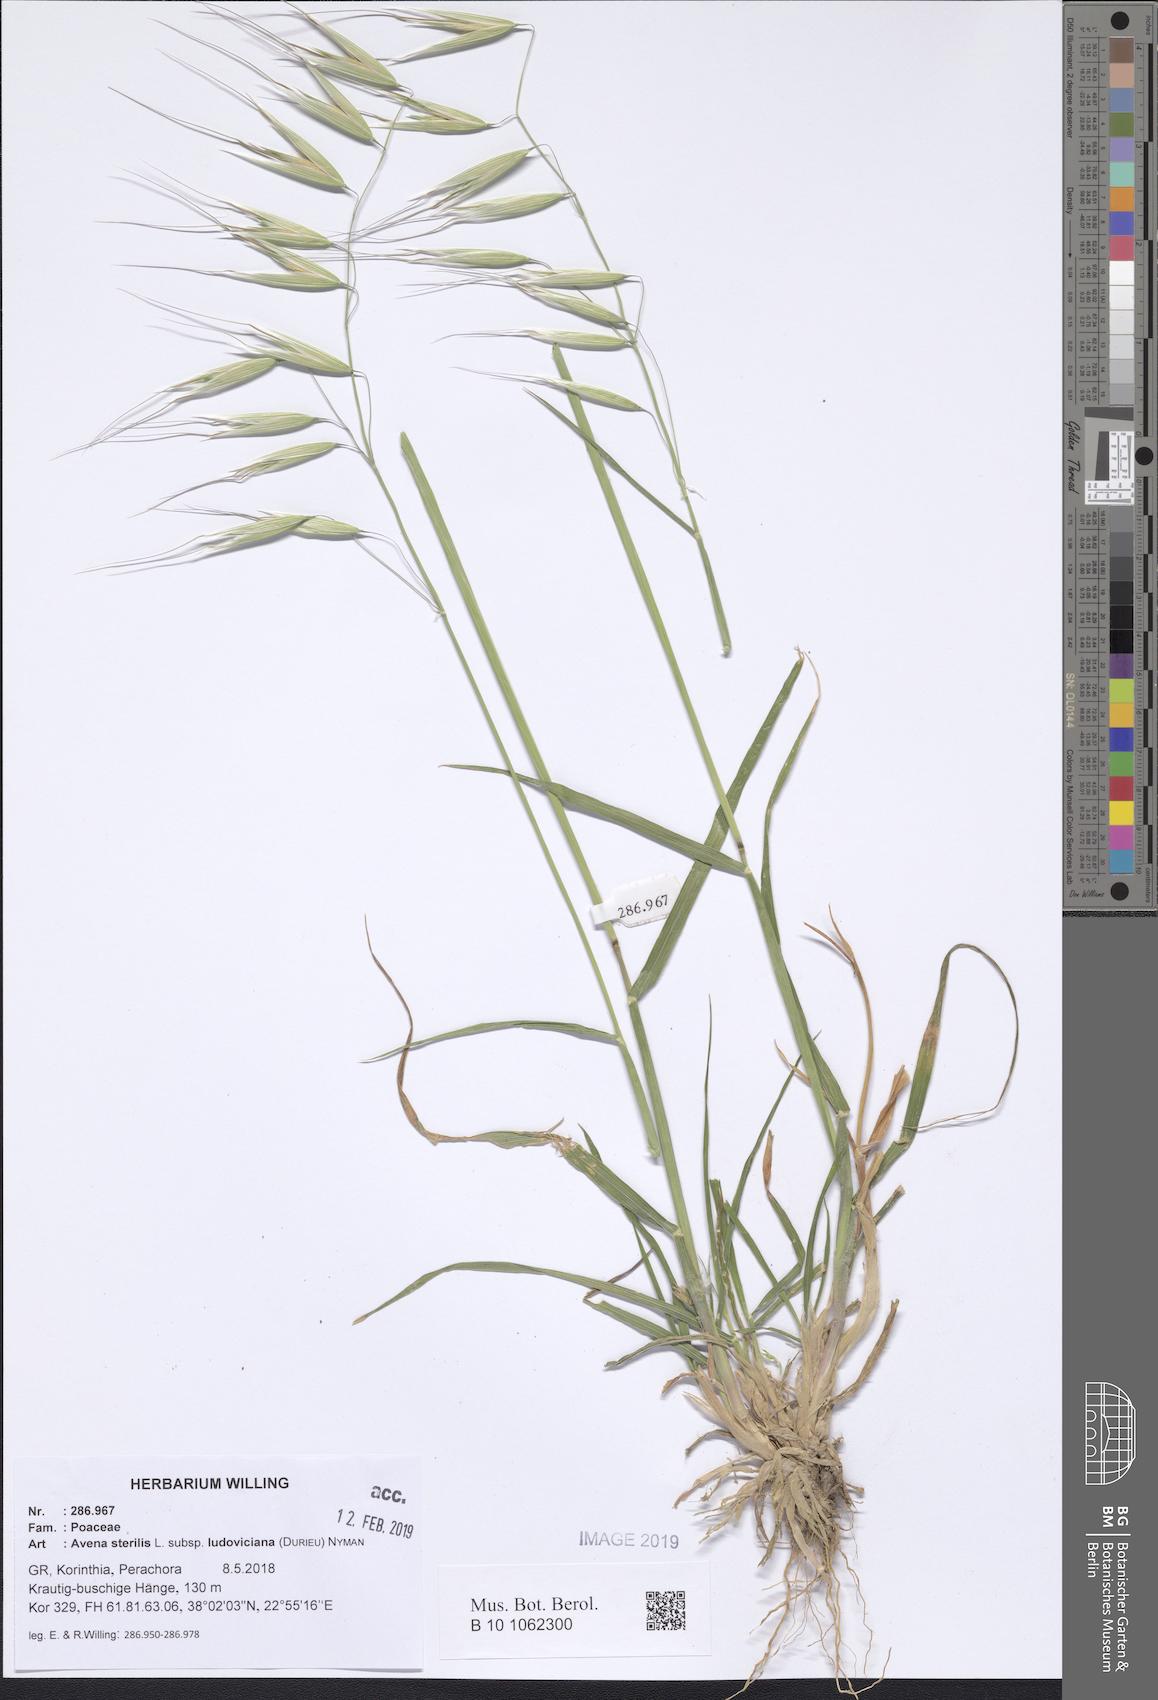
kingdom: Plantae
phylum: Tracheophyta
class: Liliopsida
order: Poales
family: Poaceae
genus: Avena
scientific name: Avena sterilis
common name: Animated oat
